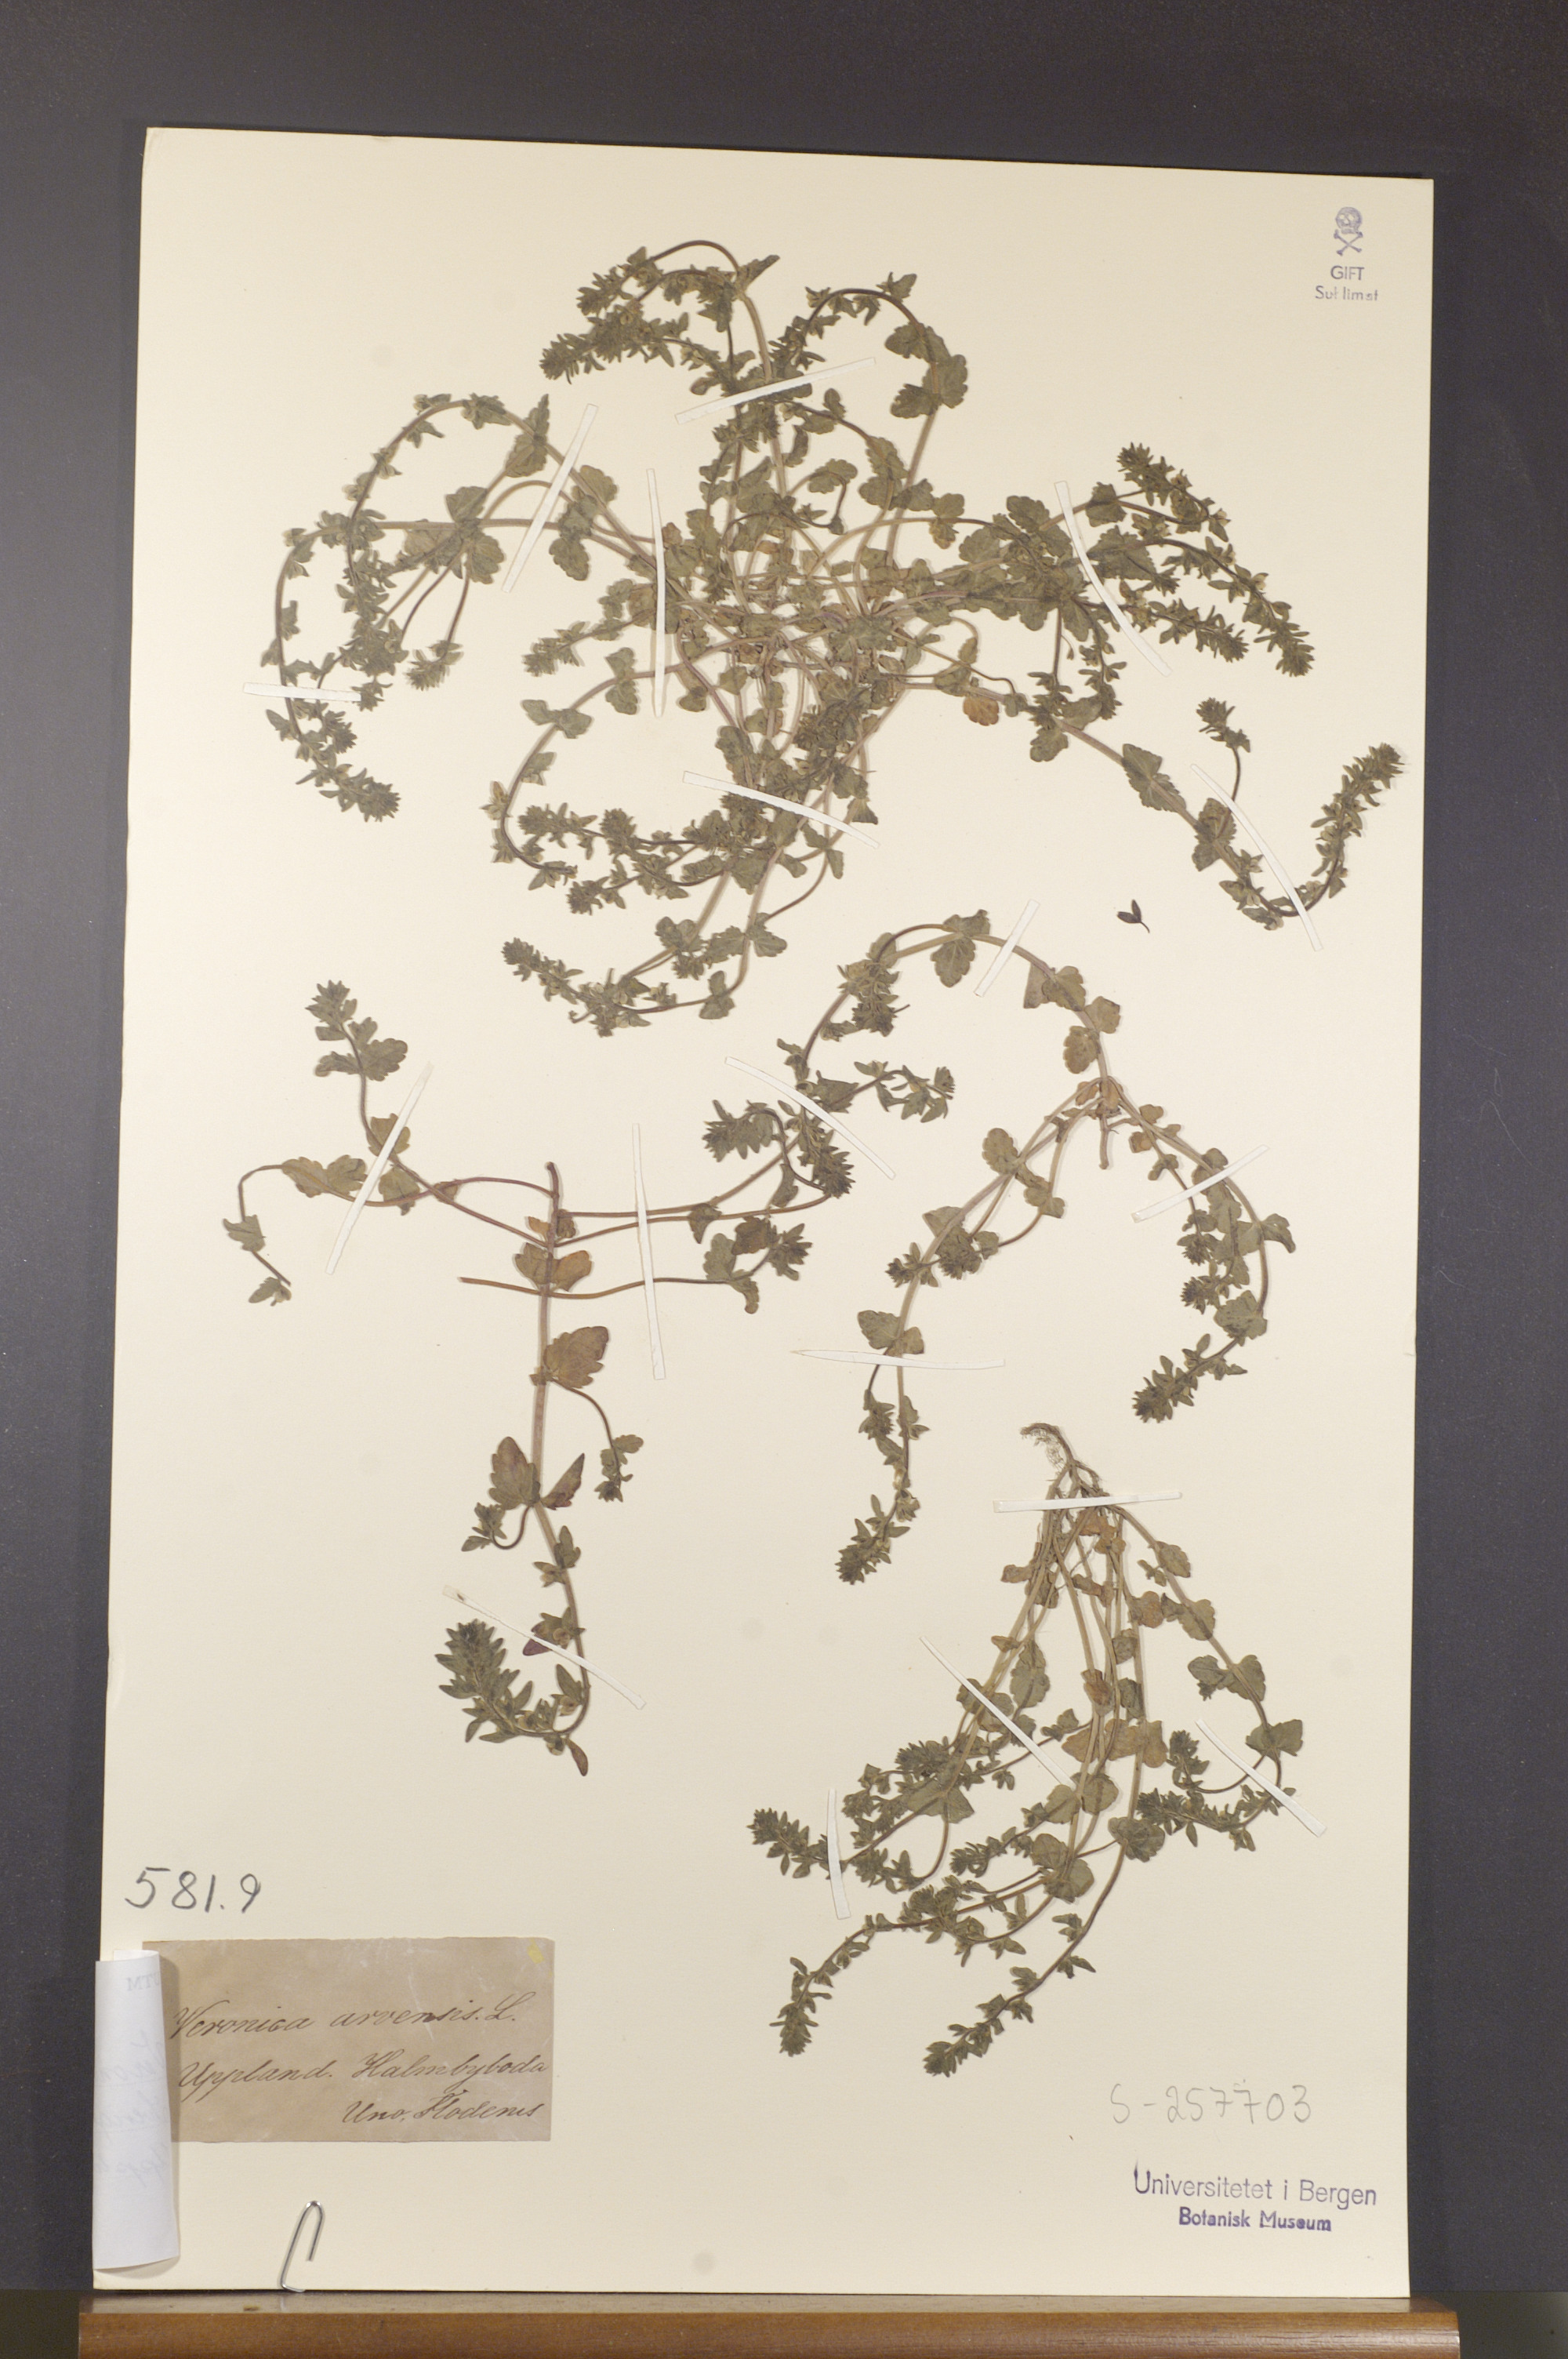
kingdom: Plantae
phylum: Tracheophyta
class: Magnoliopsida
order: Lamiales
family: Plantaginaceae
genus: Veronica
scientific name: Veronica arvensis
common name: Corn speedwell
